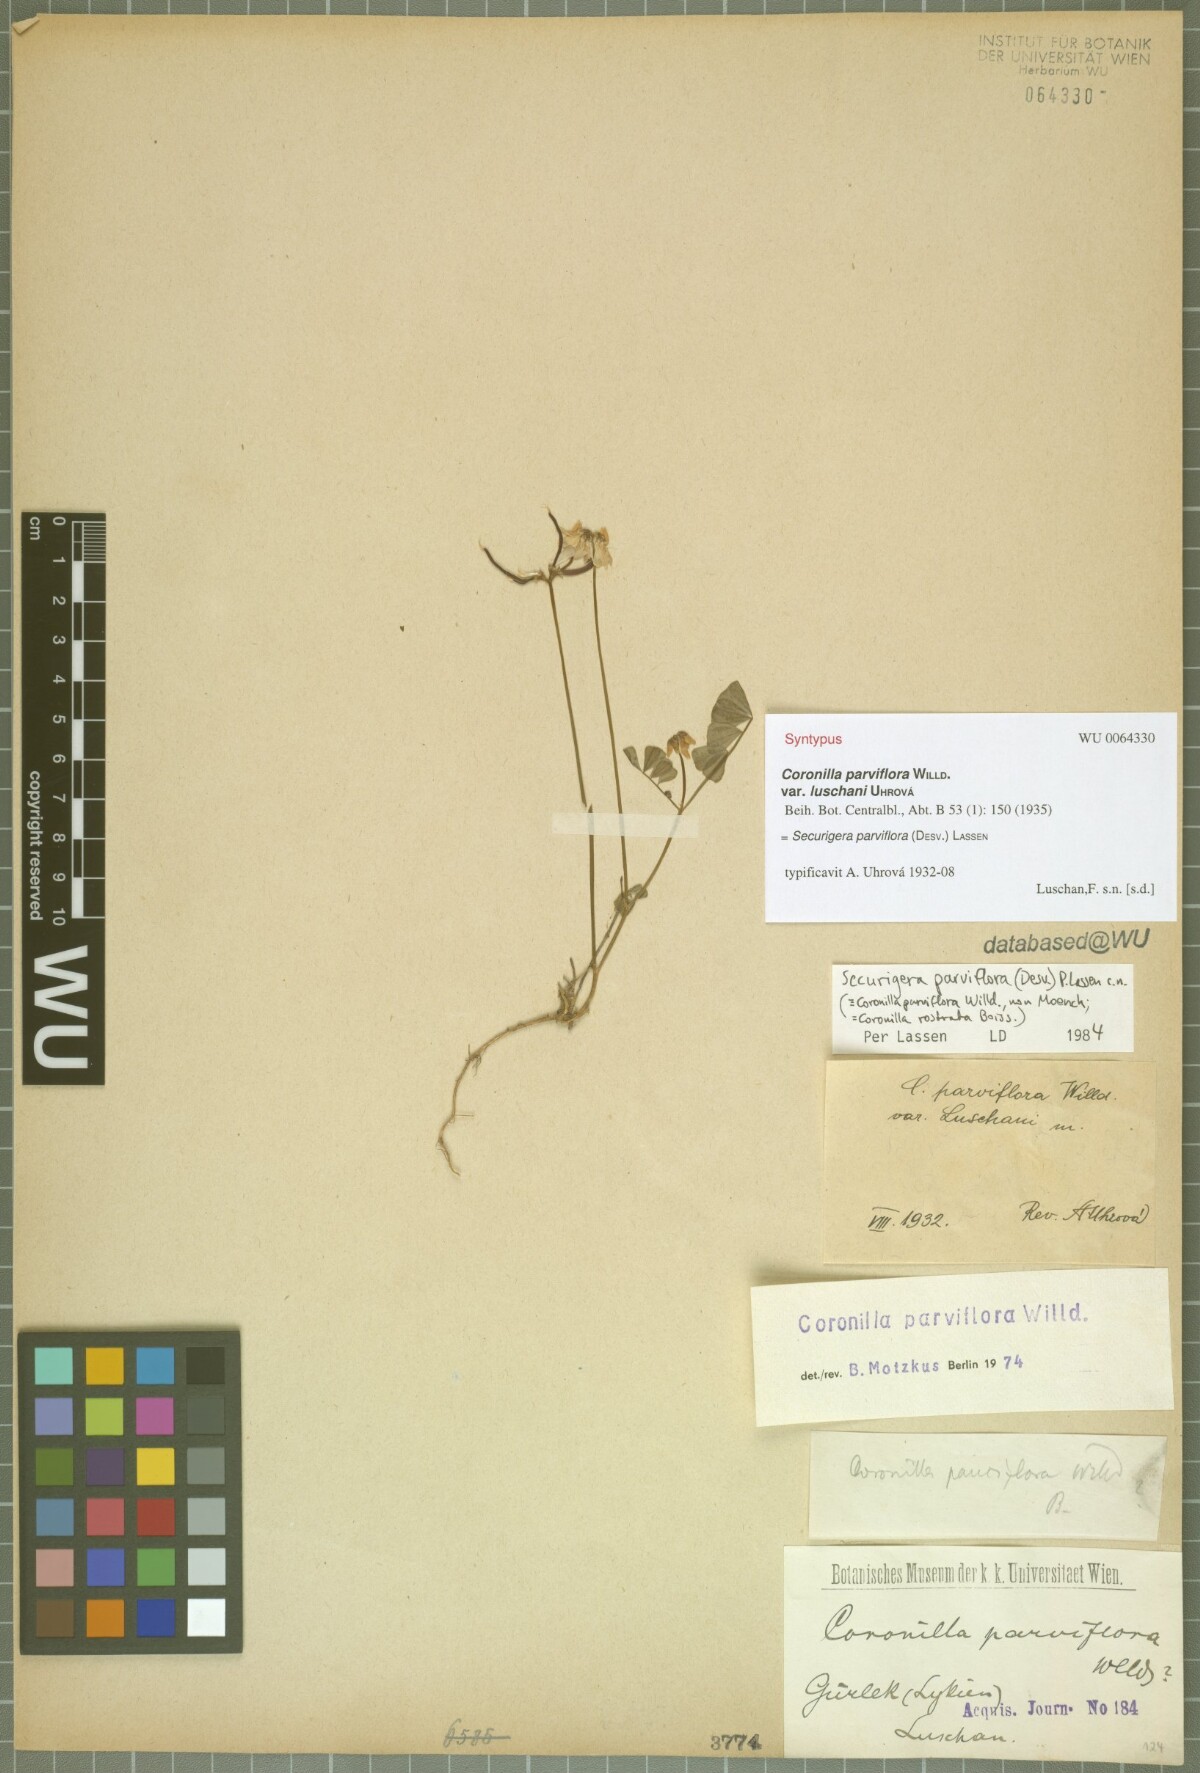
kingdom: Plantae
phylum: Tracheophyta
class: Magnoliopsida
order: Fabales
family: Fabaceae
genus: Coronilla
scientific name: Coronilla
